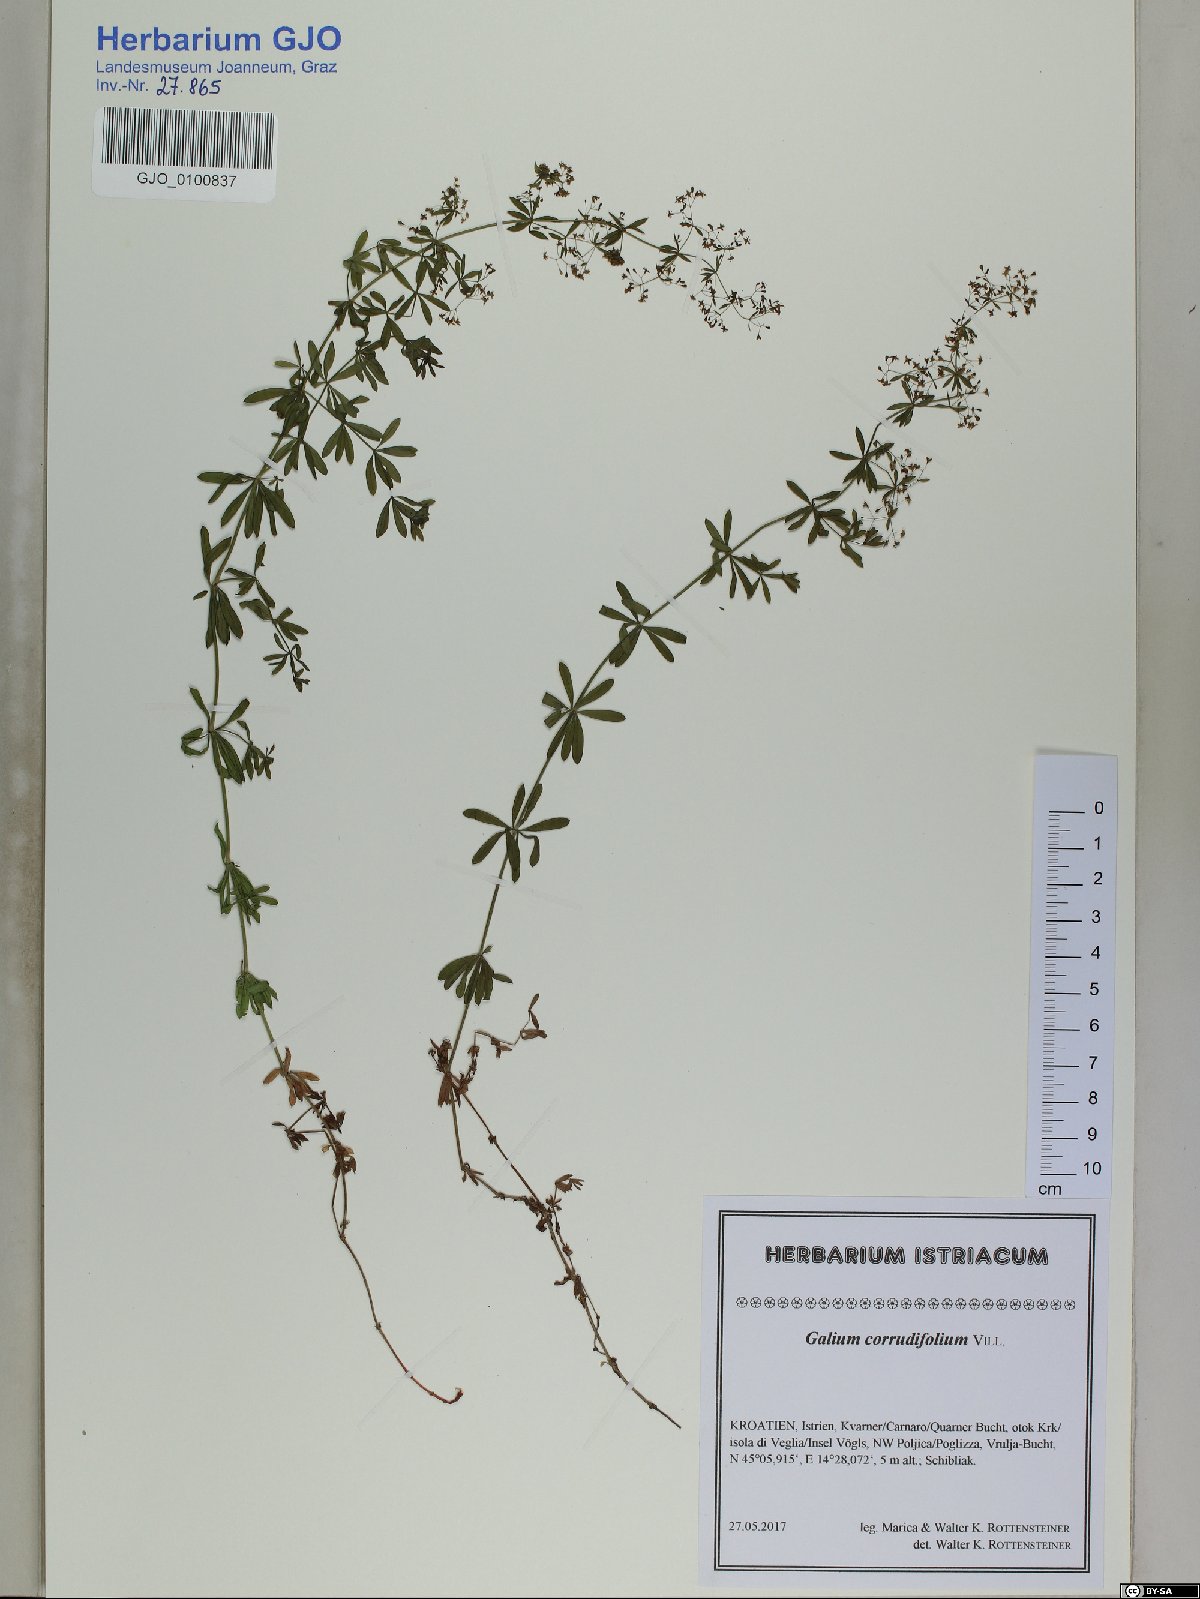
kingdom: Plantae
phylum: Tracheophyta
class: Magnoliopsida
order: Gentianales
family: Rubiaceae
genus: Galium
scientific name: Galium lucidum
